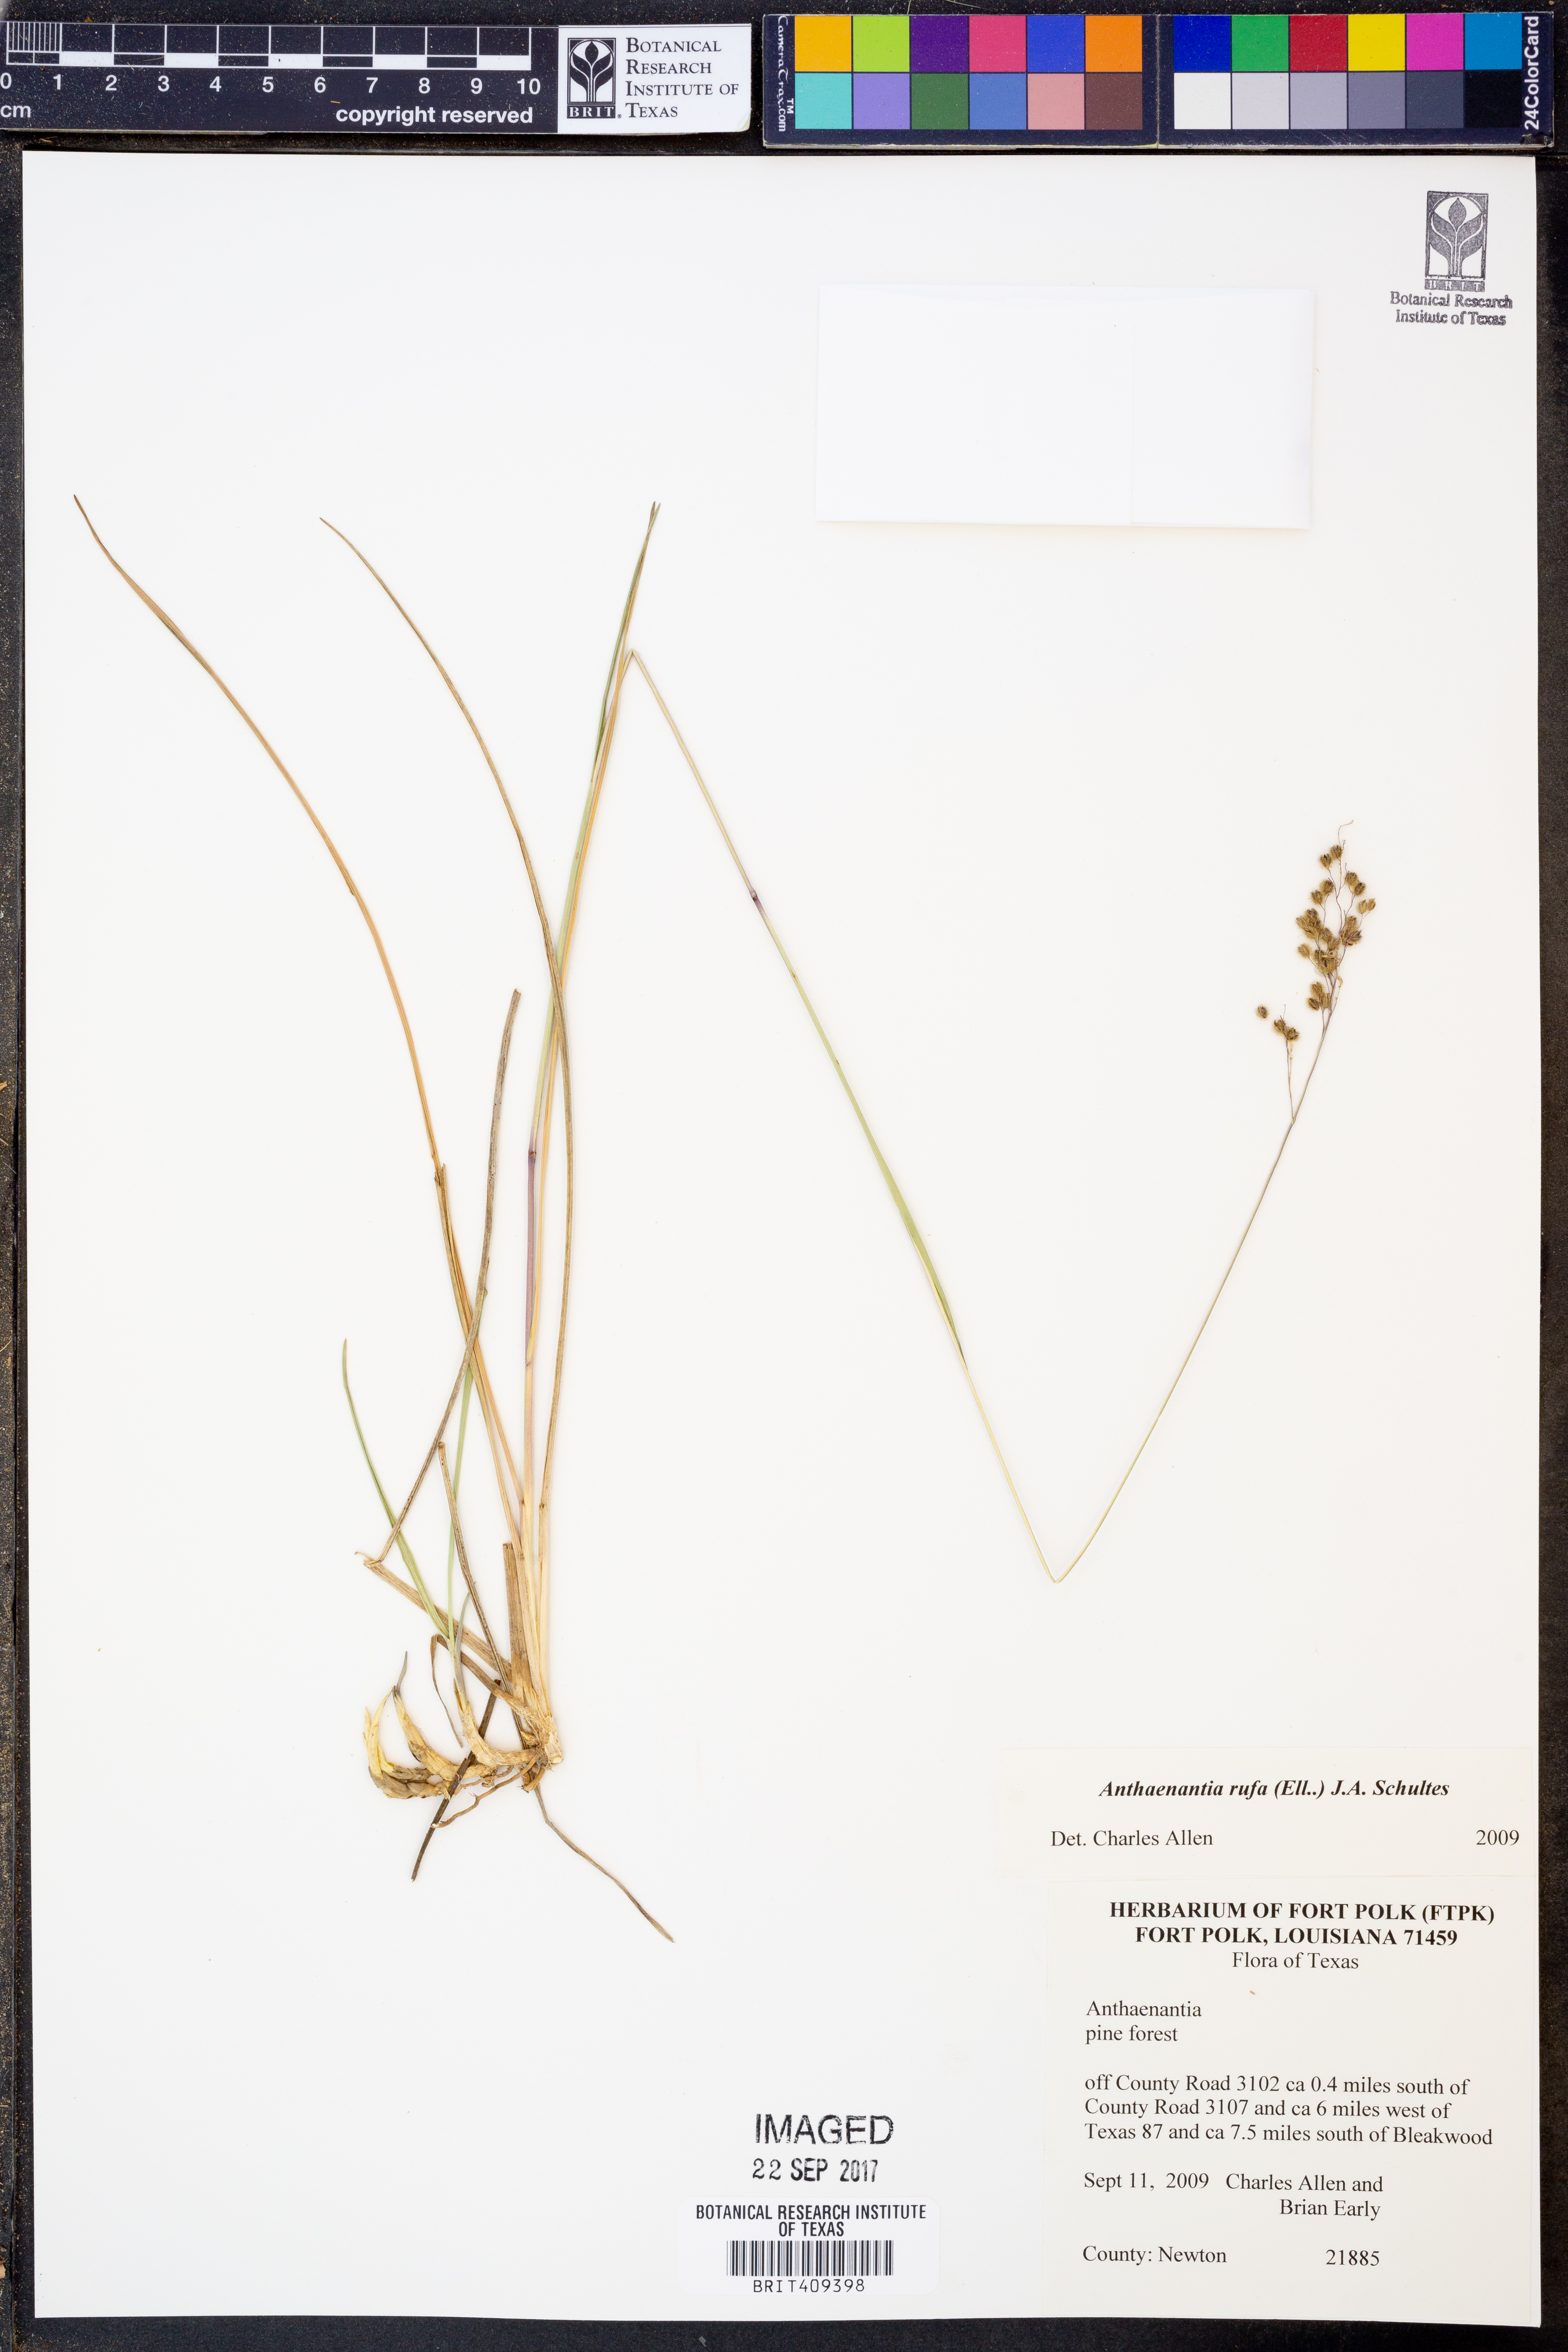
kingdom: Plantae
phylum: Tracheophyta
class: Liliopsida
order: Poales
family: Poaceae
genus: Anthenantia
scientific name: Anthenantia rufa
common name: Purple silkyscale
